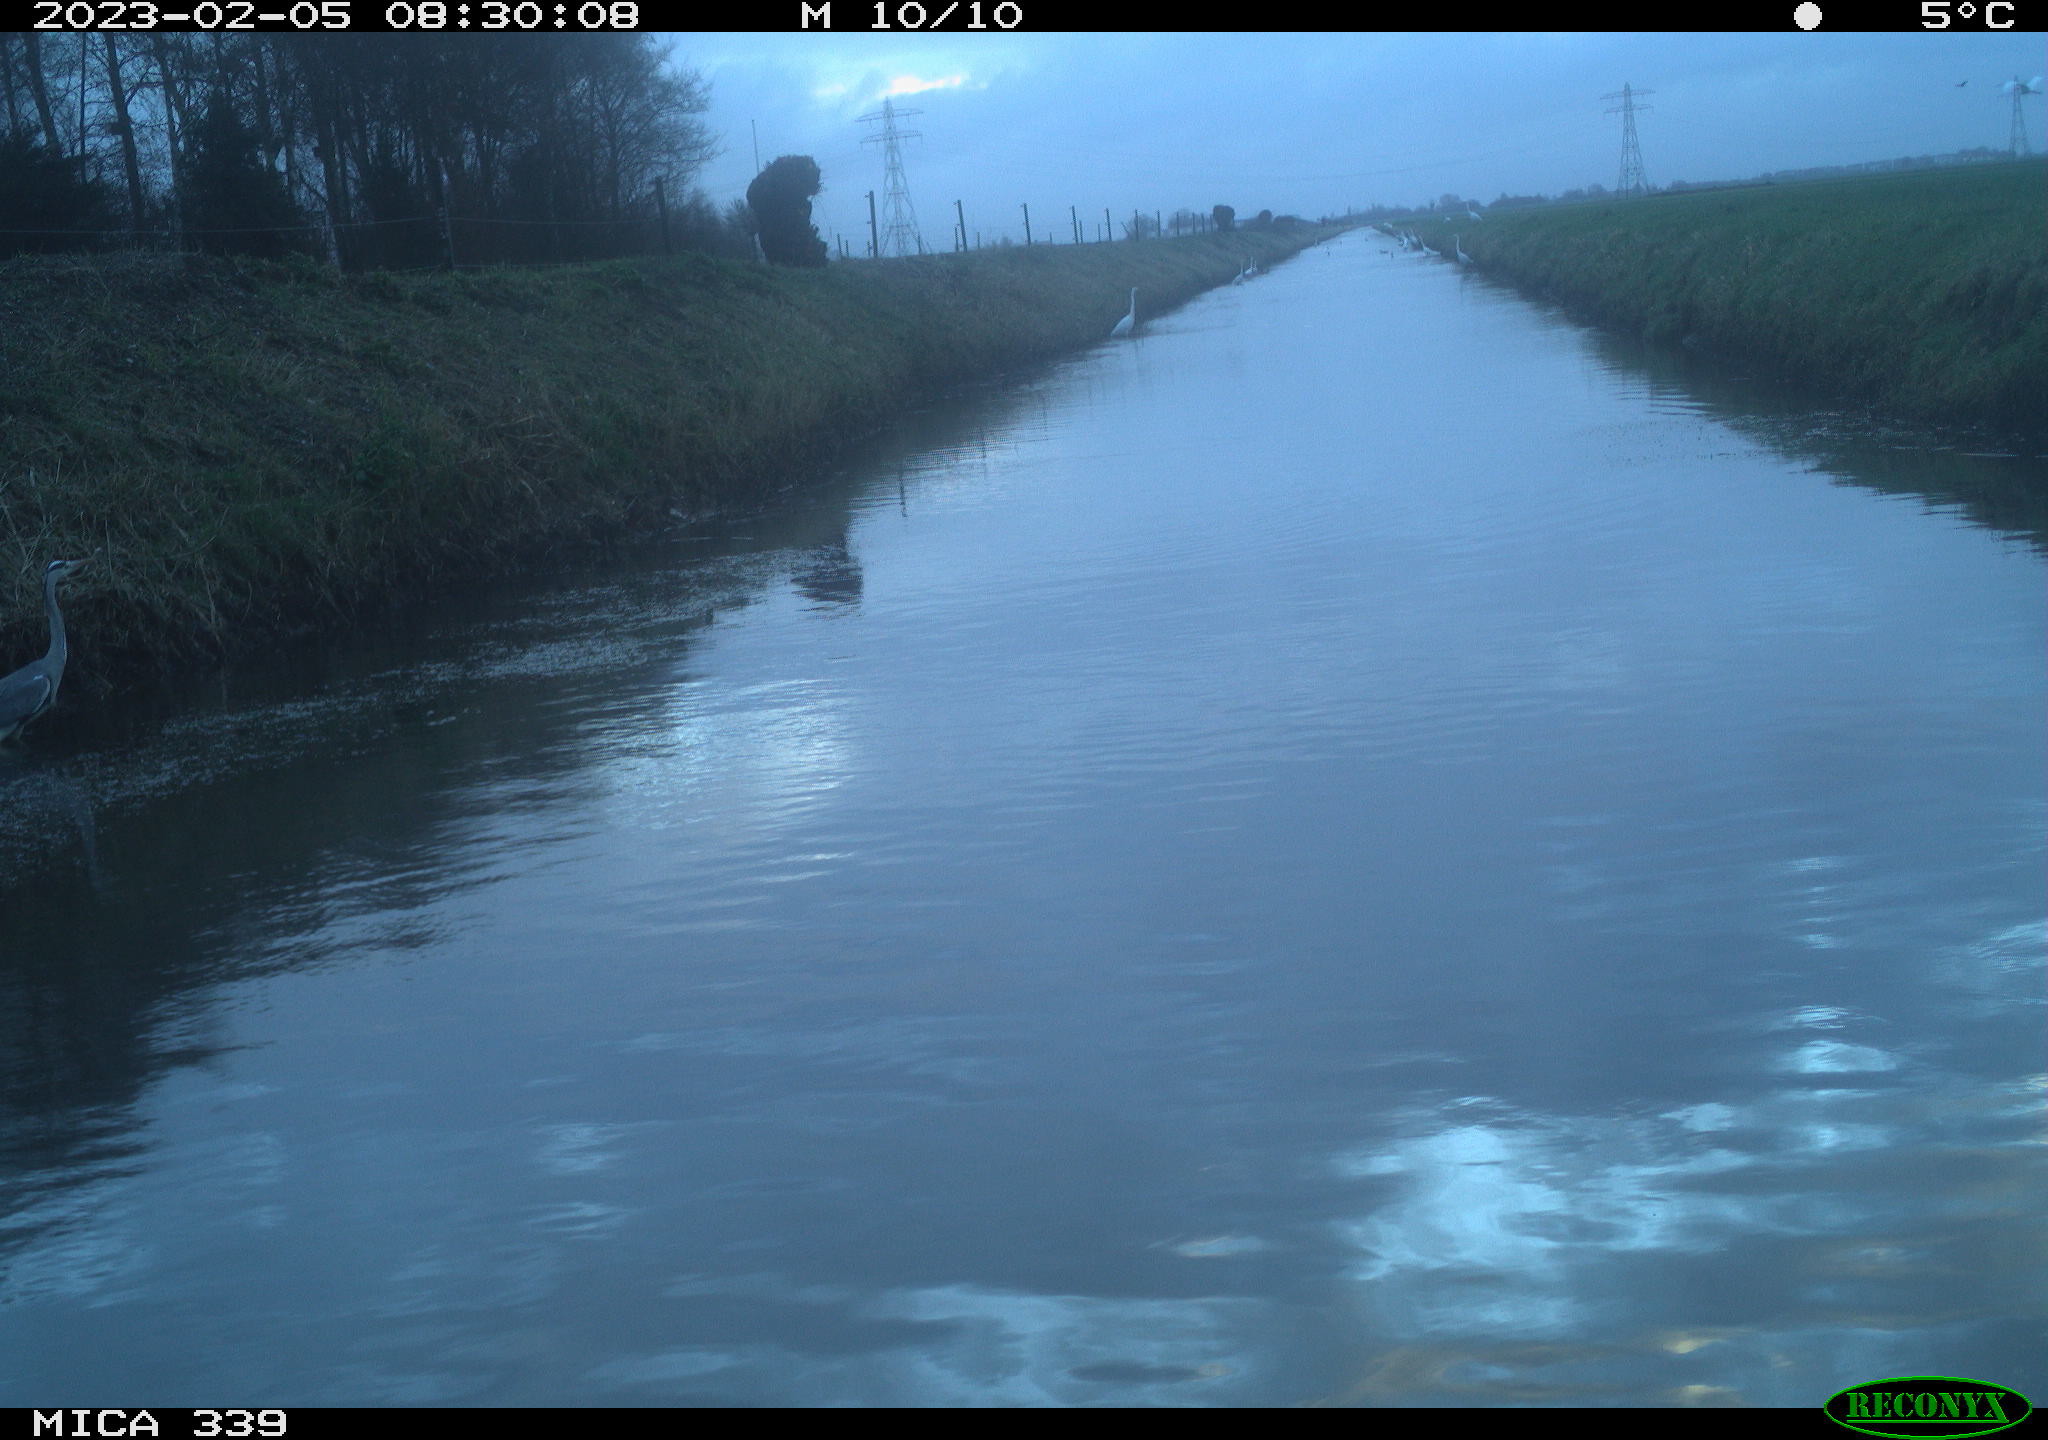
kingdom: Animalia
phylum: Chordata
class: Aves
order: Pelecaniformes
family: Ardeidae
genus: Ardea
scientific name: Ardea alba
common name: Great egret
